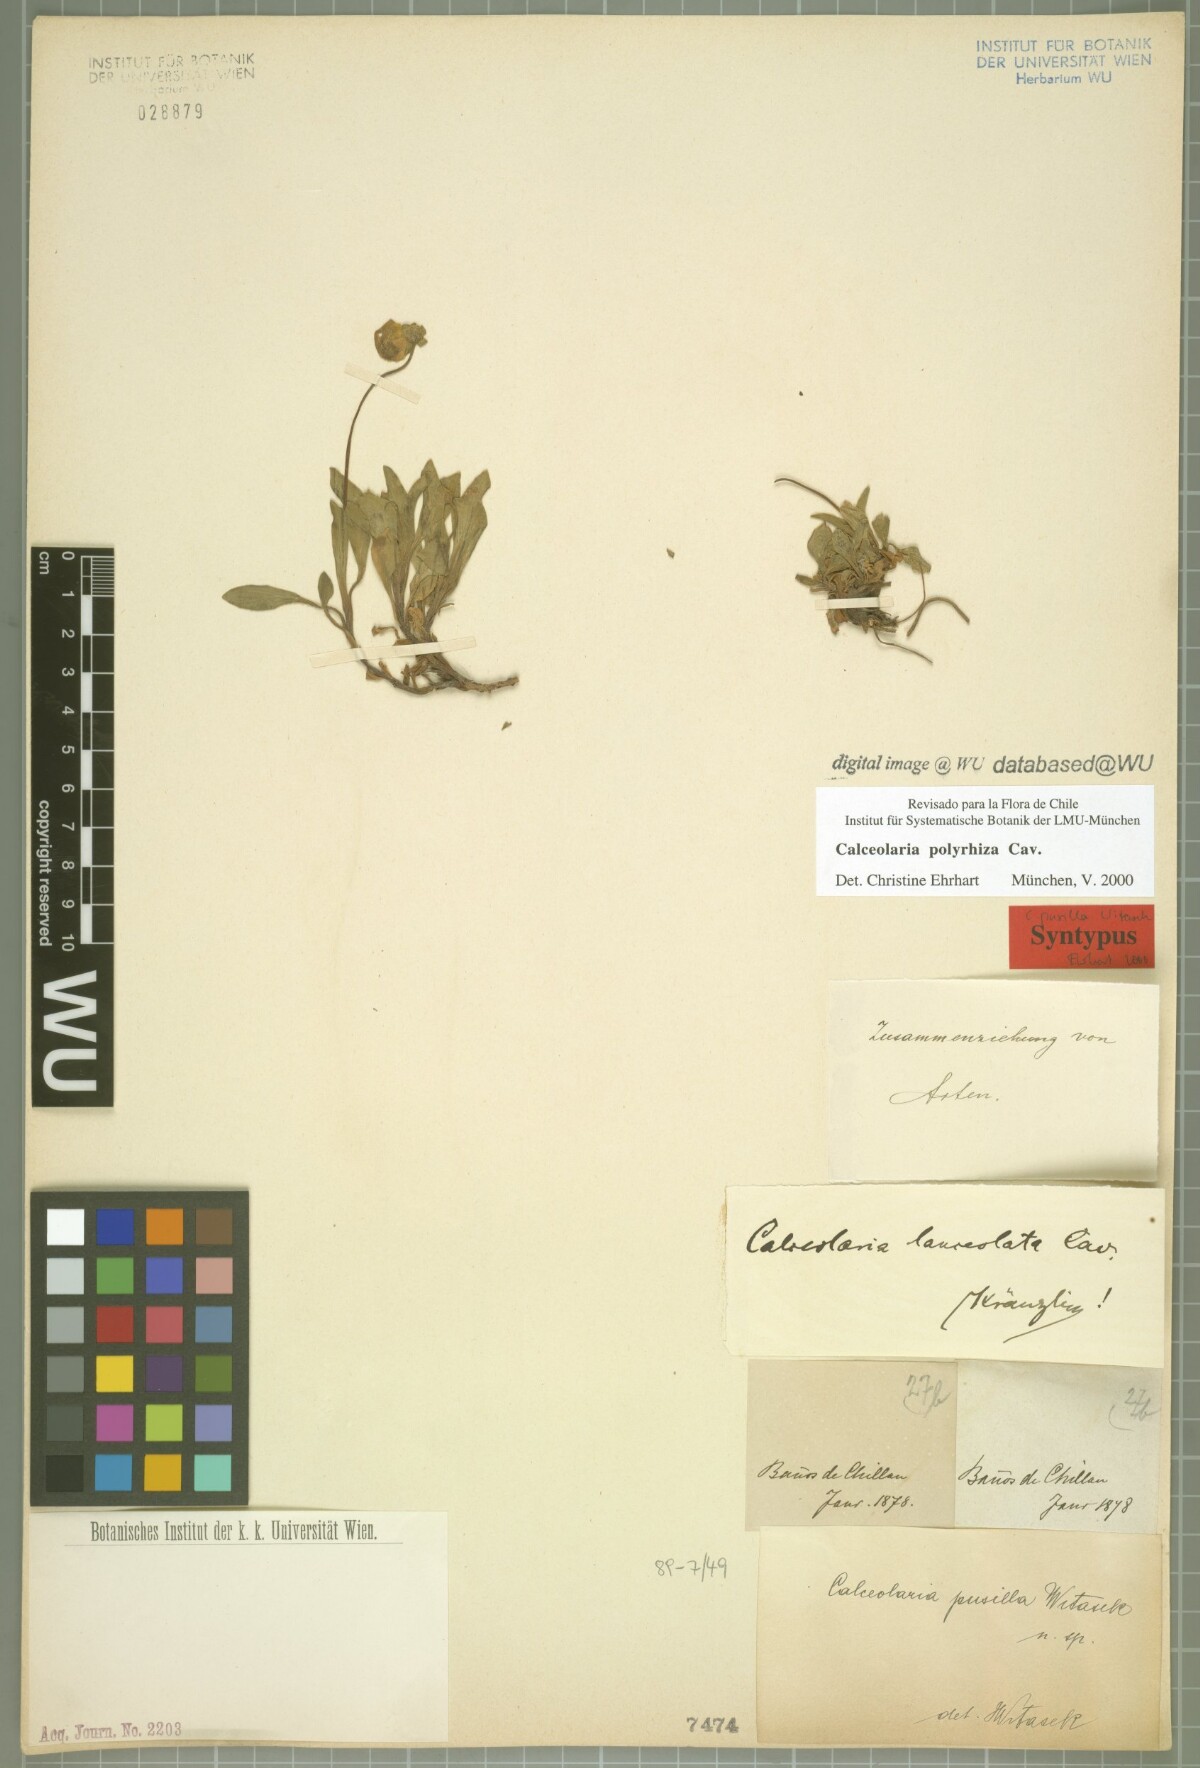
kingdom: Plantae
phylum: Tracheophyta
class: Magnoliopsida
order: Lamiales
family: Calceolariaceae
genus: Calceolaria
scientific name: Calceolaria polyrhiza
